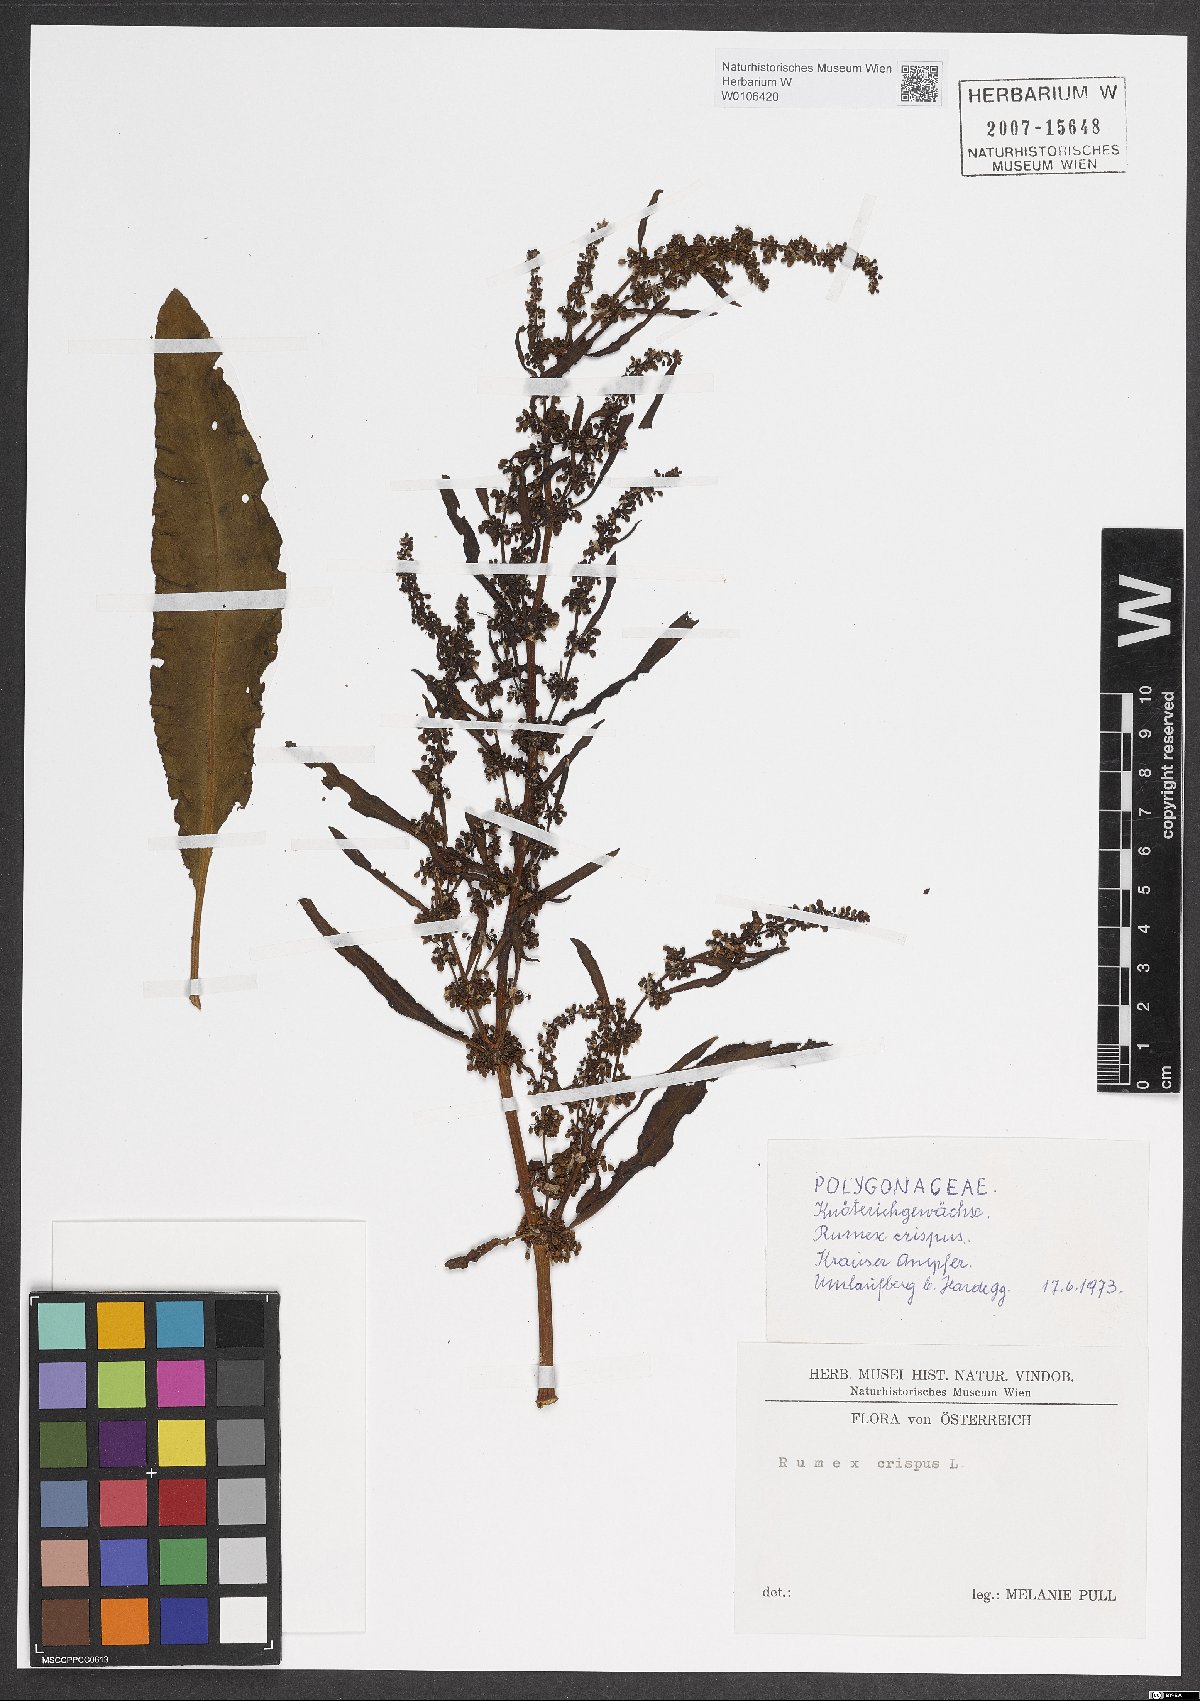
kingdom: Plantae
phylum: Tracheophyta
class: Magnoliopsida
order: Caryophyllales
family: Polygonaceae
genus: Rumex
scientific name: Rumex crispus
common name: Curled dock
